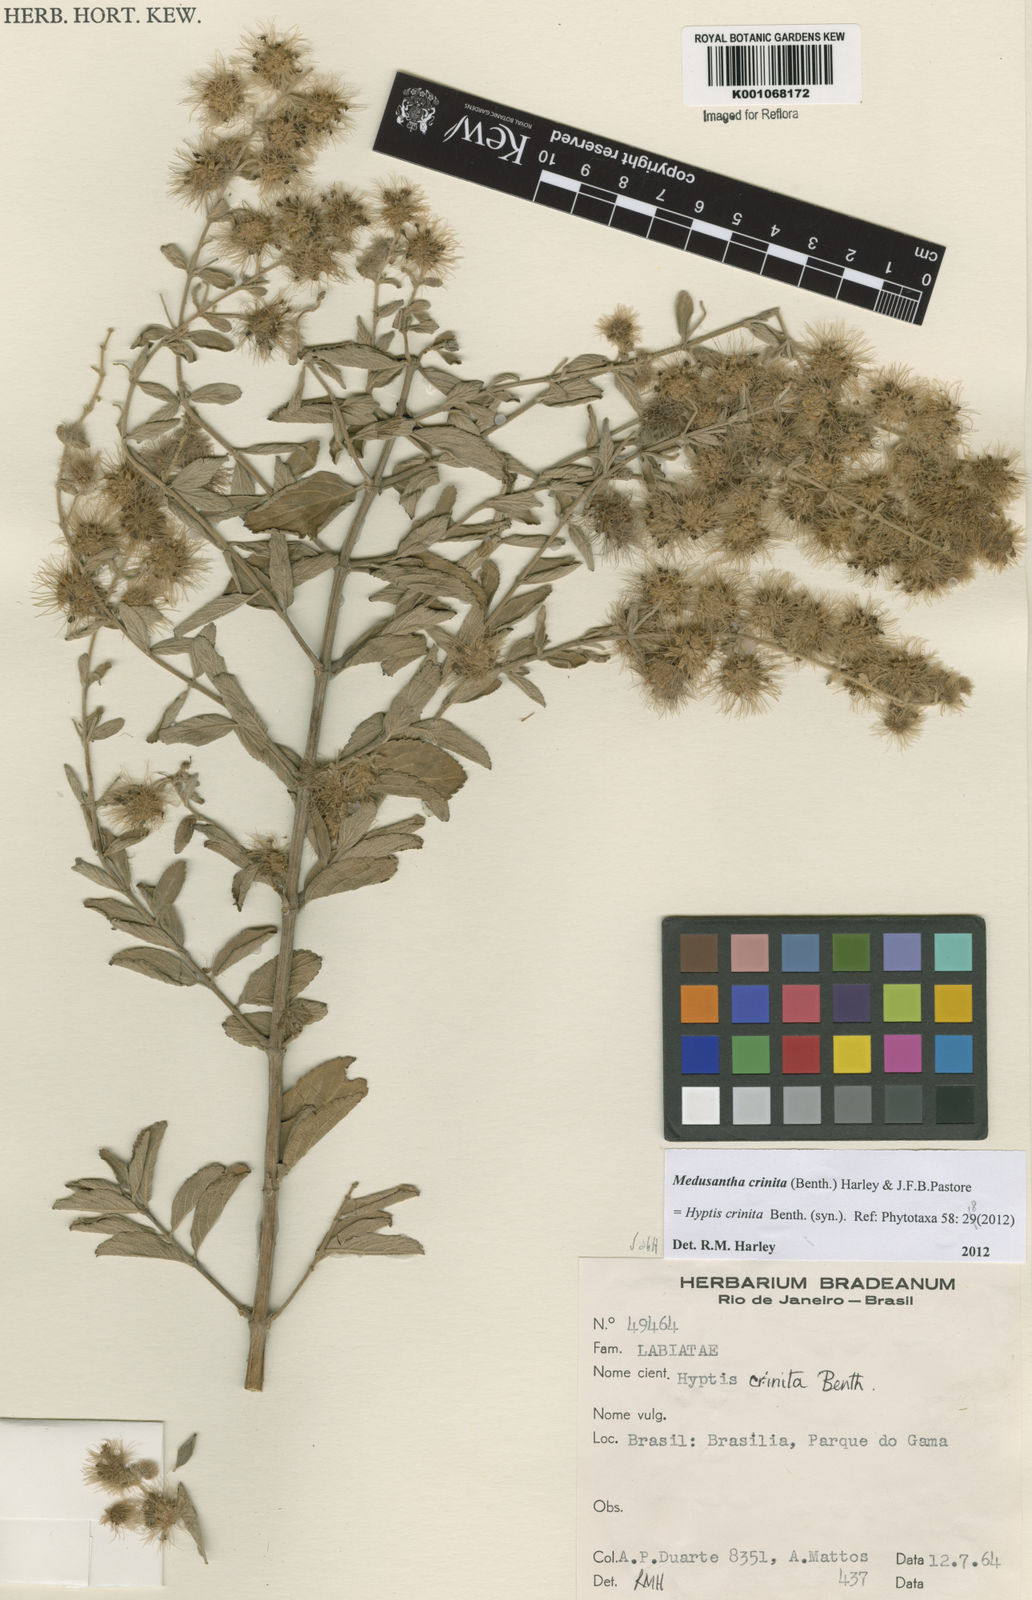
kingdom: Plantae
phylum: Tracheophyta
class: Magnoliopsida
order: Lamiales
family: Lamiaceae
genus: Medusantha
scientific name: Medusantha crinita
